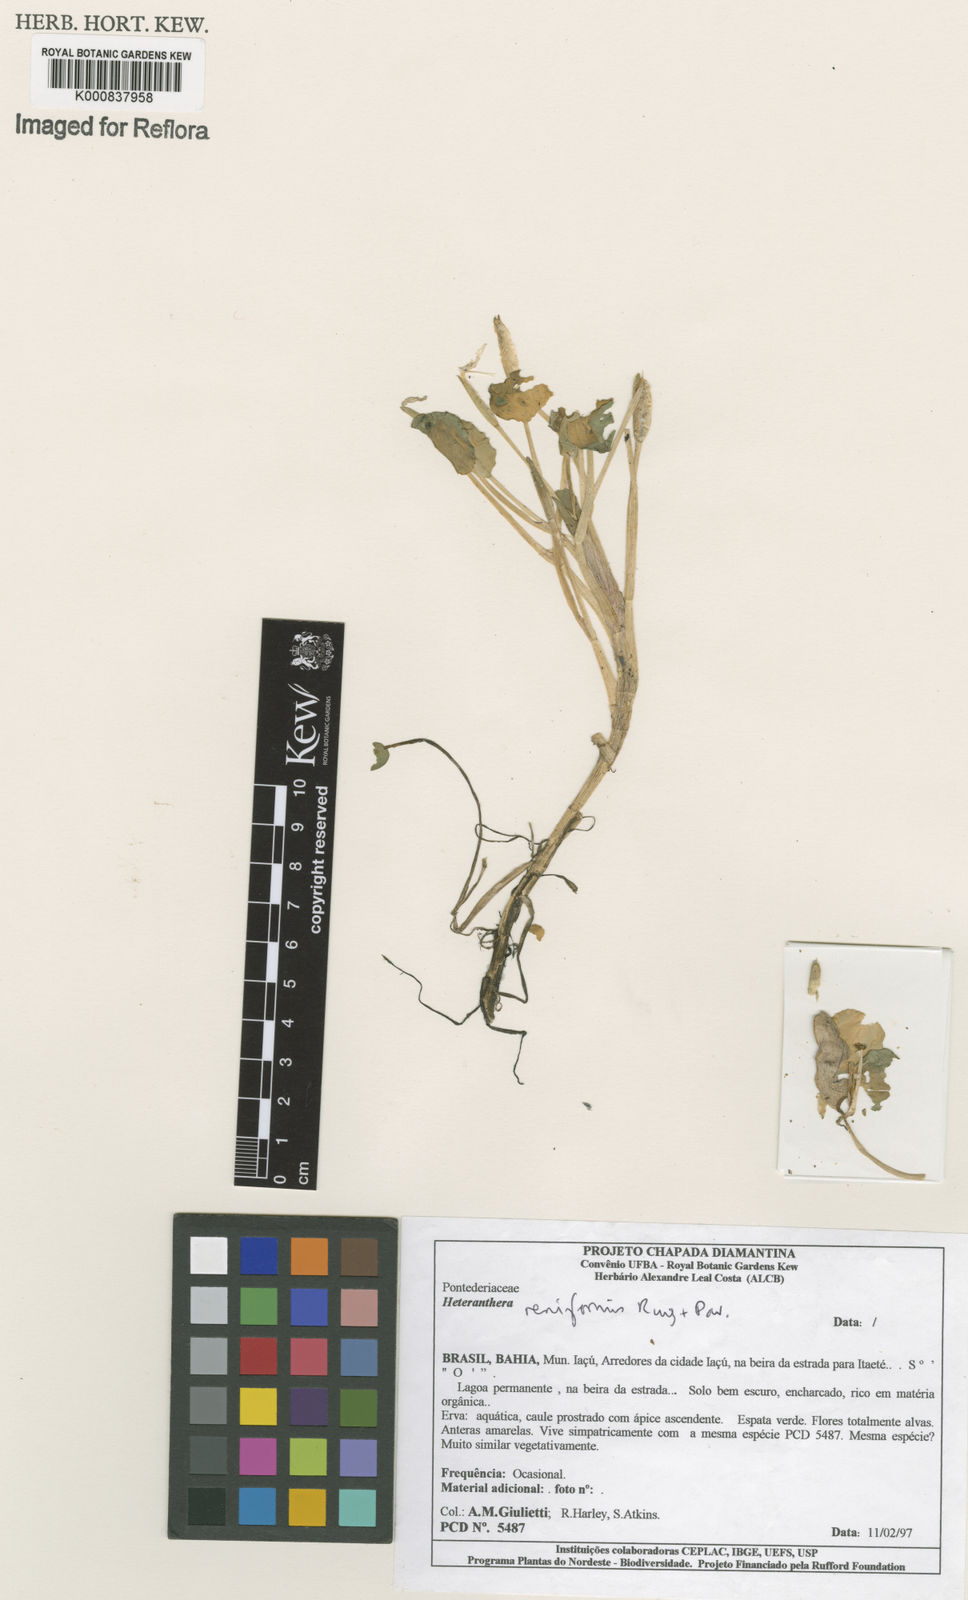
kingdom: Plantae
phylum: Tracheophyta
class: Liliopsida
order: Commelinales
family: Pontederiaceae
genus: Heteranthera
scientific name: Heteranthera reniformis
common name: Kidneyleaf mudplantain
